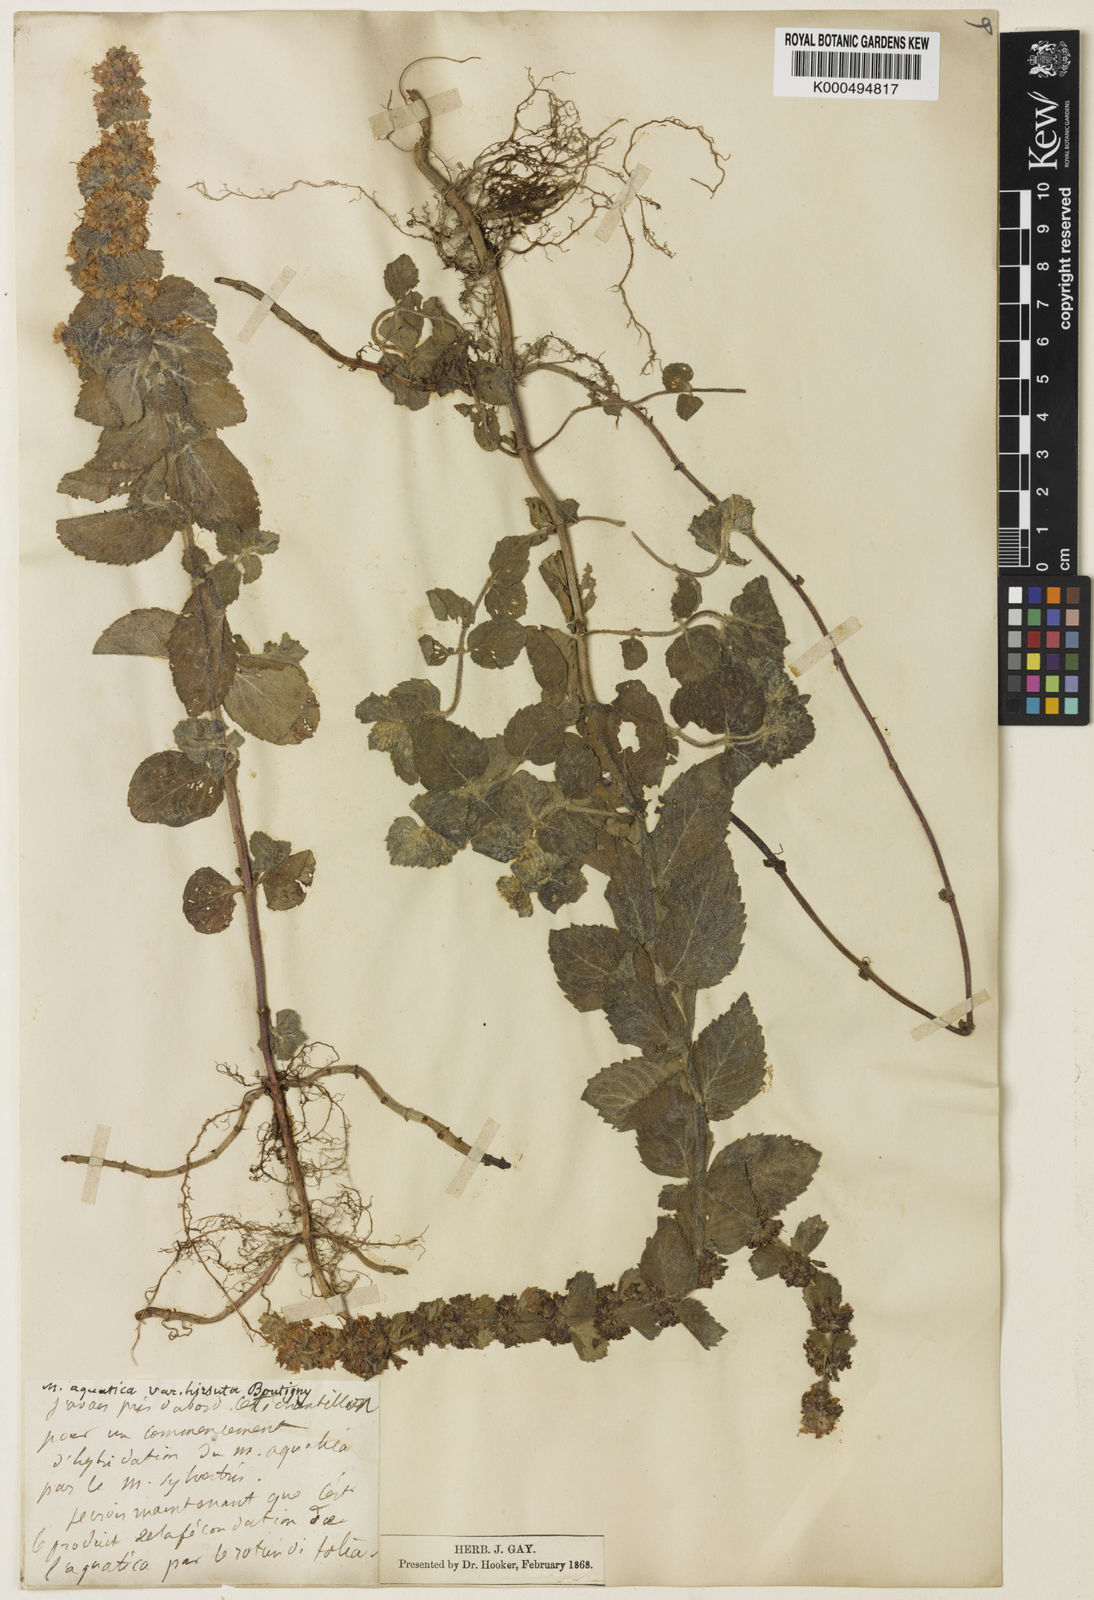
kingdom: Plantae
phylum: Tracheophyta
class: Magnoliopsida
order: Lamiales
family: Lamiaceae
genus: Mentha
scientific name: Mentha aquatica
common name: Water mint
